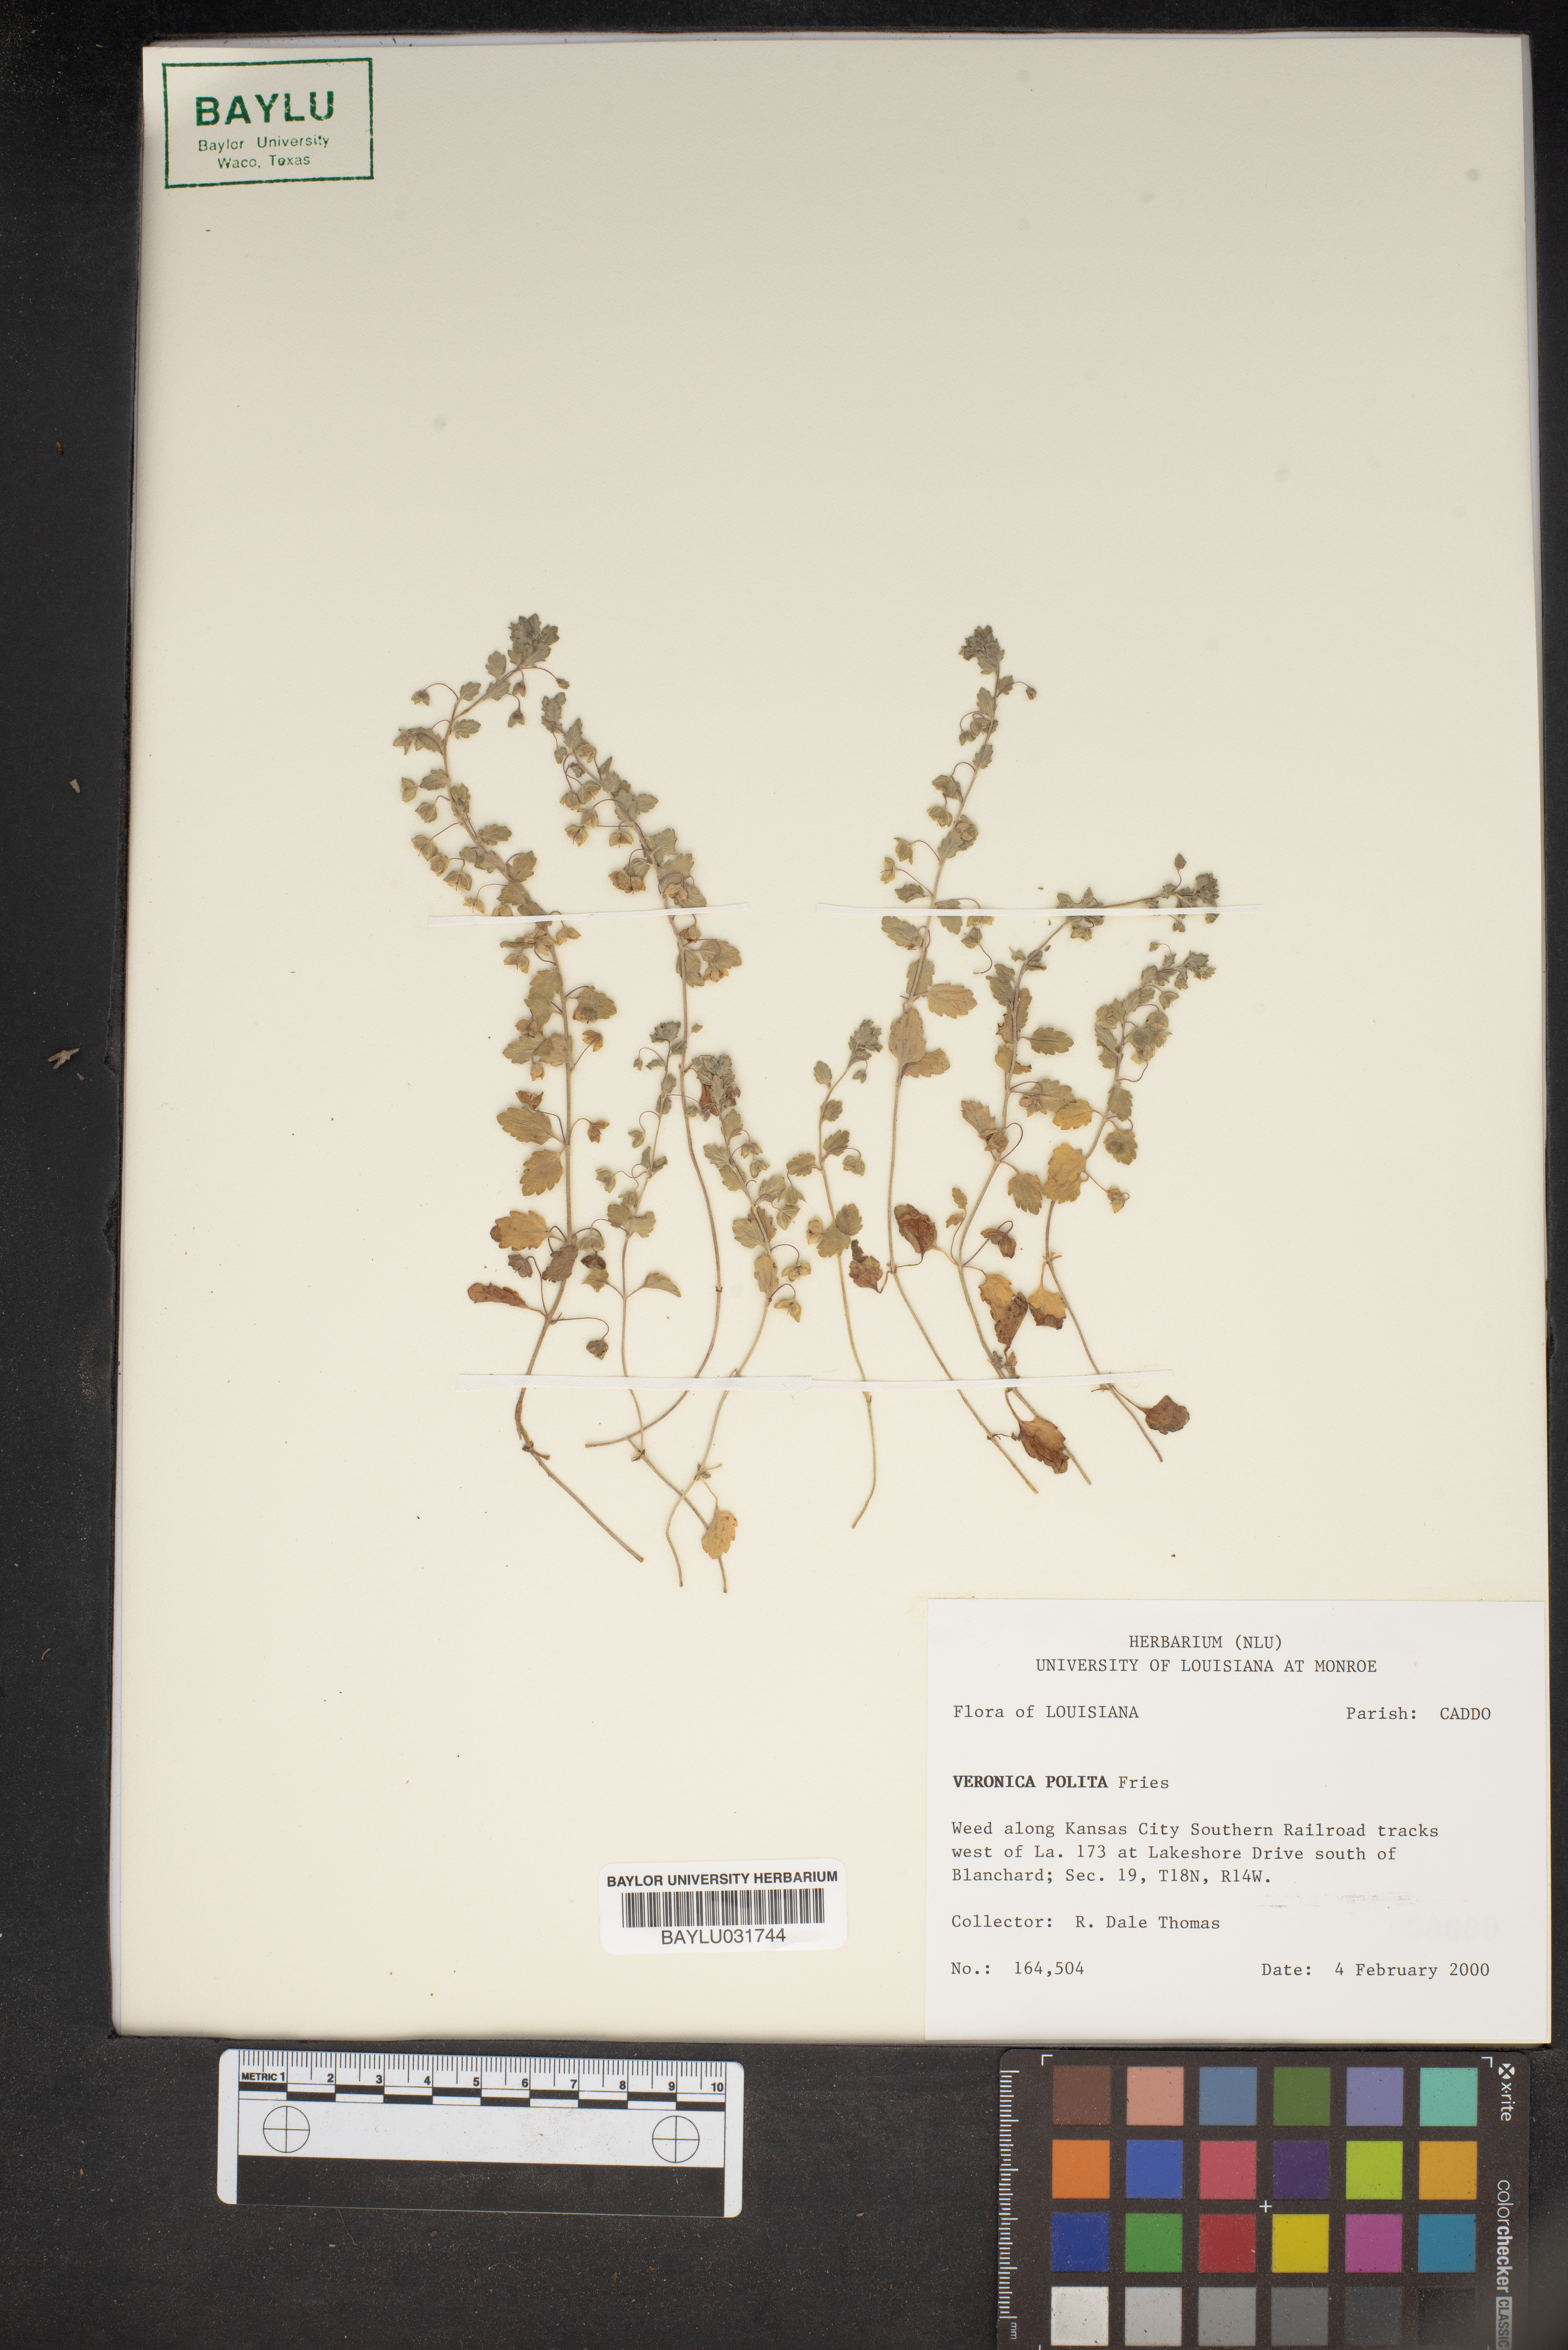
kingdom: Plantae
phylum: Tracheophyta
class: Magnoliopsida
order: Lamiales
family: Plantaginaceae
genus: Veronica
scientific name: Veronica polita
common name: Grey field-speedwell
